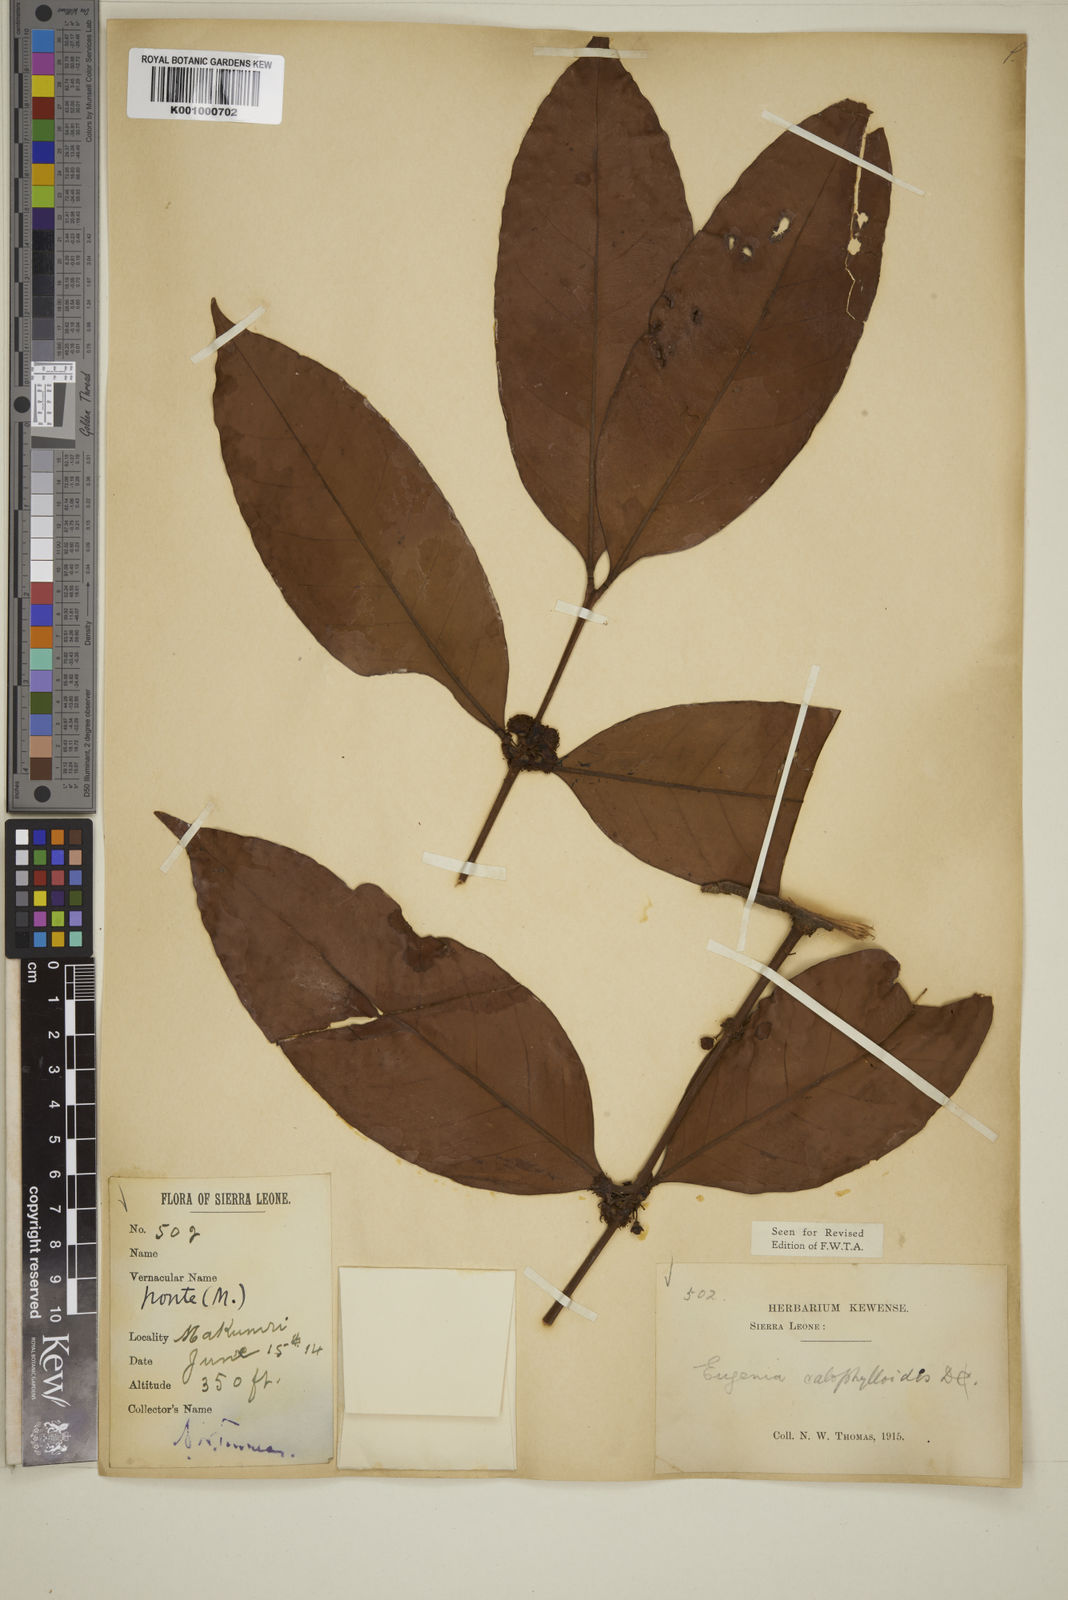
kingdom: Plantae
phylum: Tracheophyta
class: Magnoliopsida
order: Myrtales
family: Myrtaceae
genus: Eugenia
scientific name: Eugenia calophylloides
